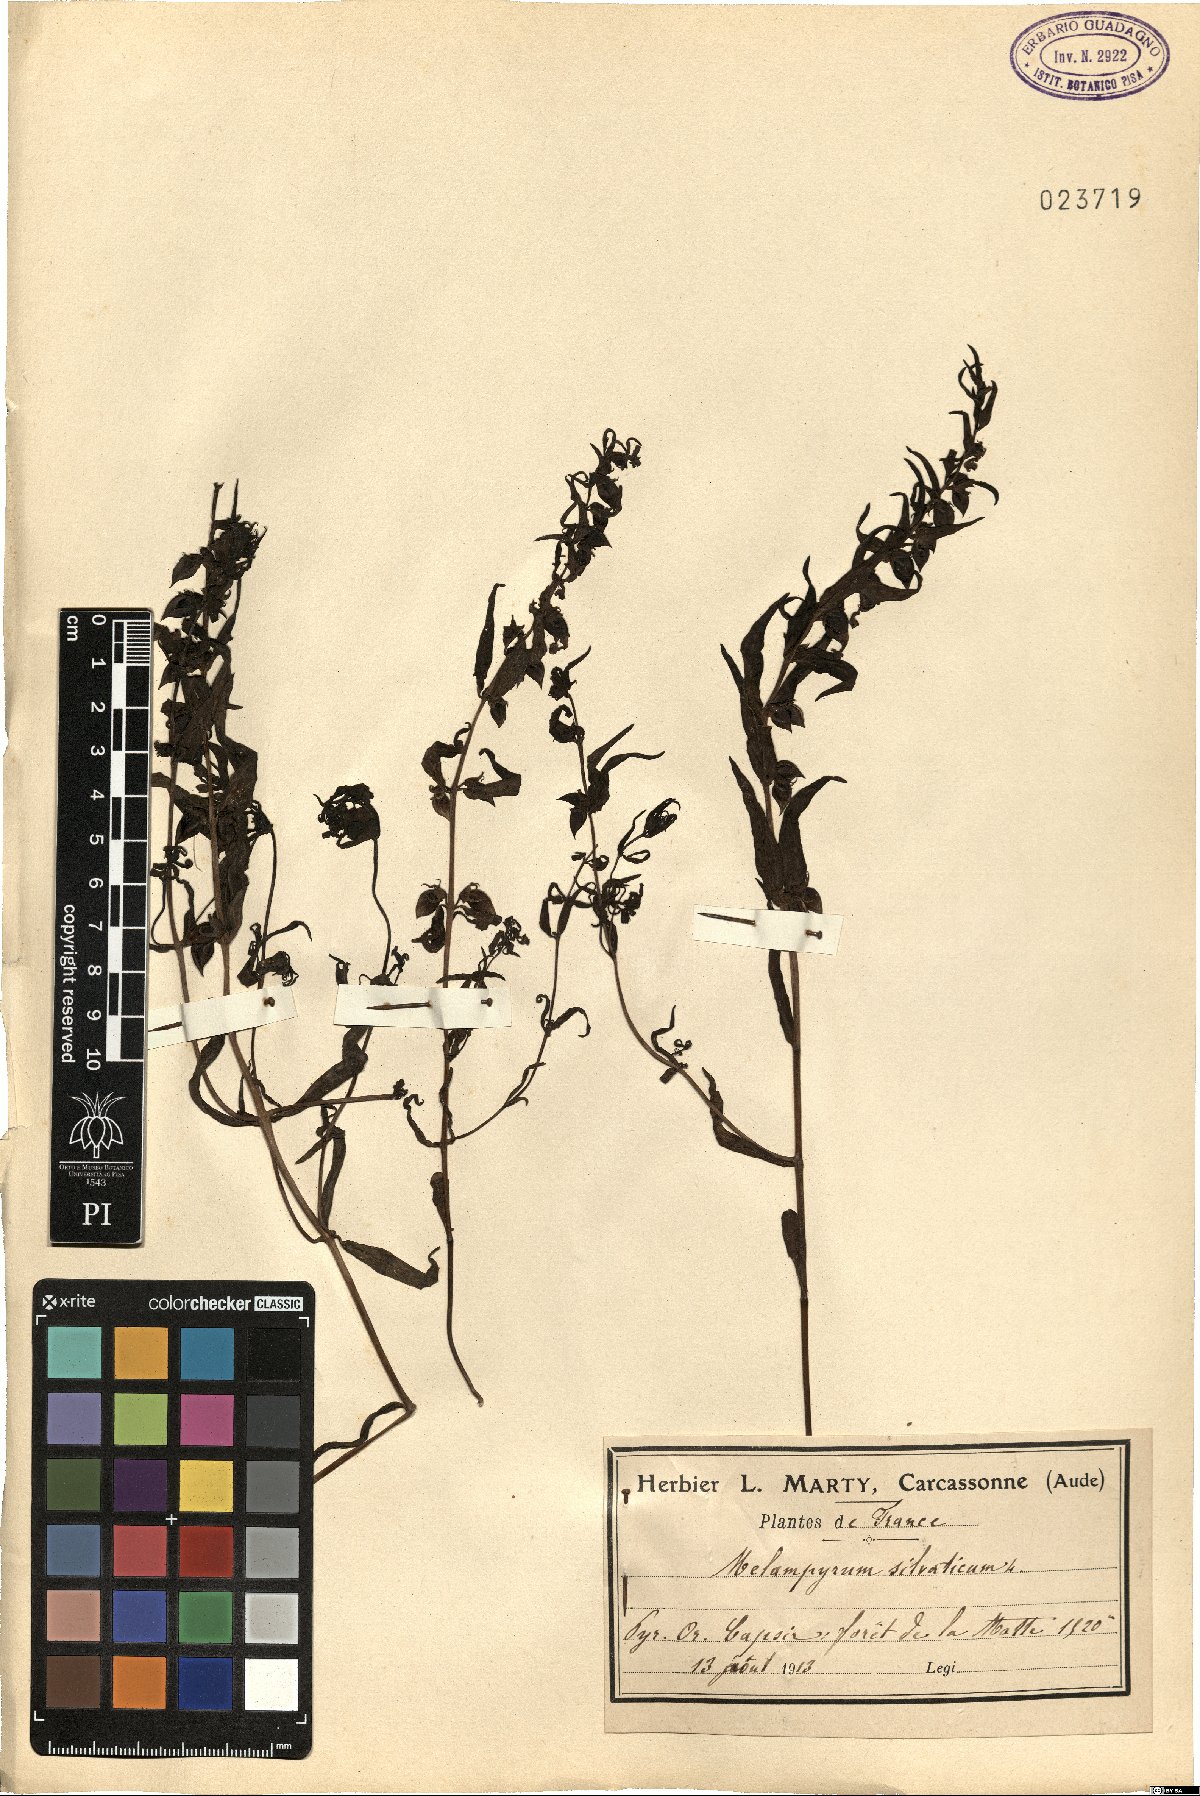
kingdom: Plantae
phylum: Tracheophyta
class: Magnoliopsida
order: Lamiales
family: Orobanchaceae
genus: Melampyrum
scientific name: Melampyrum sylvaticum
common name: Small cow-wheat
